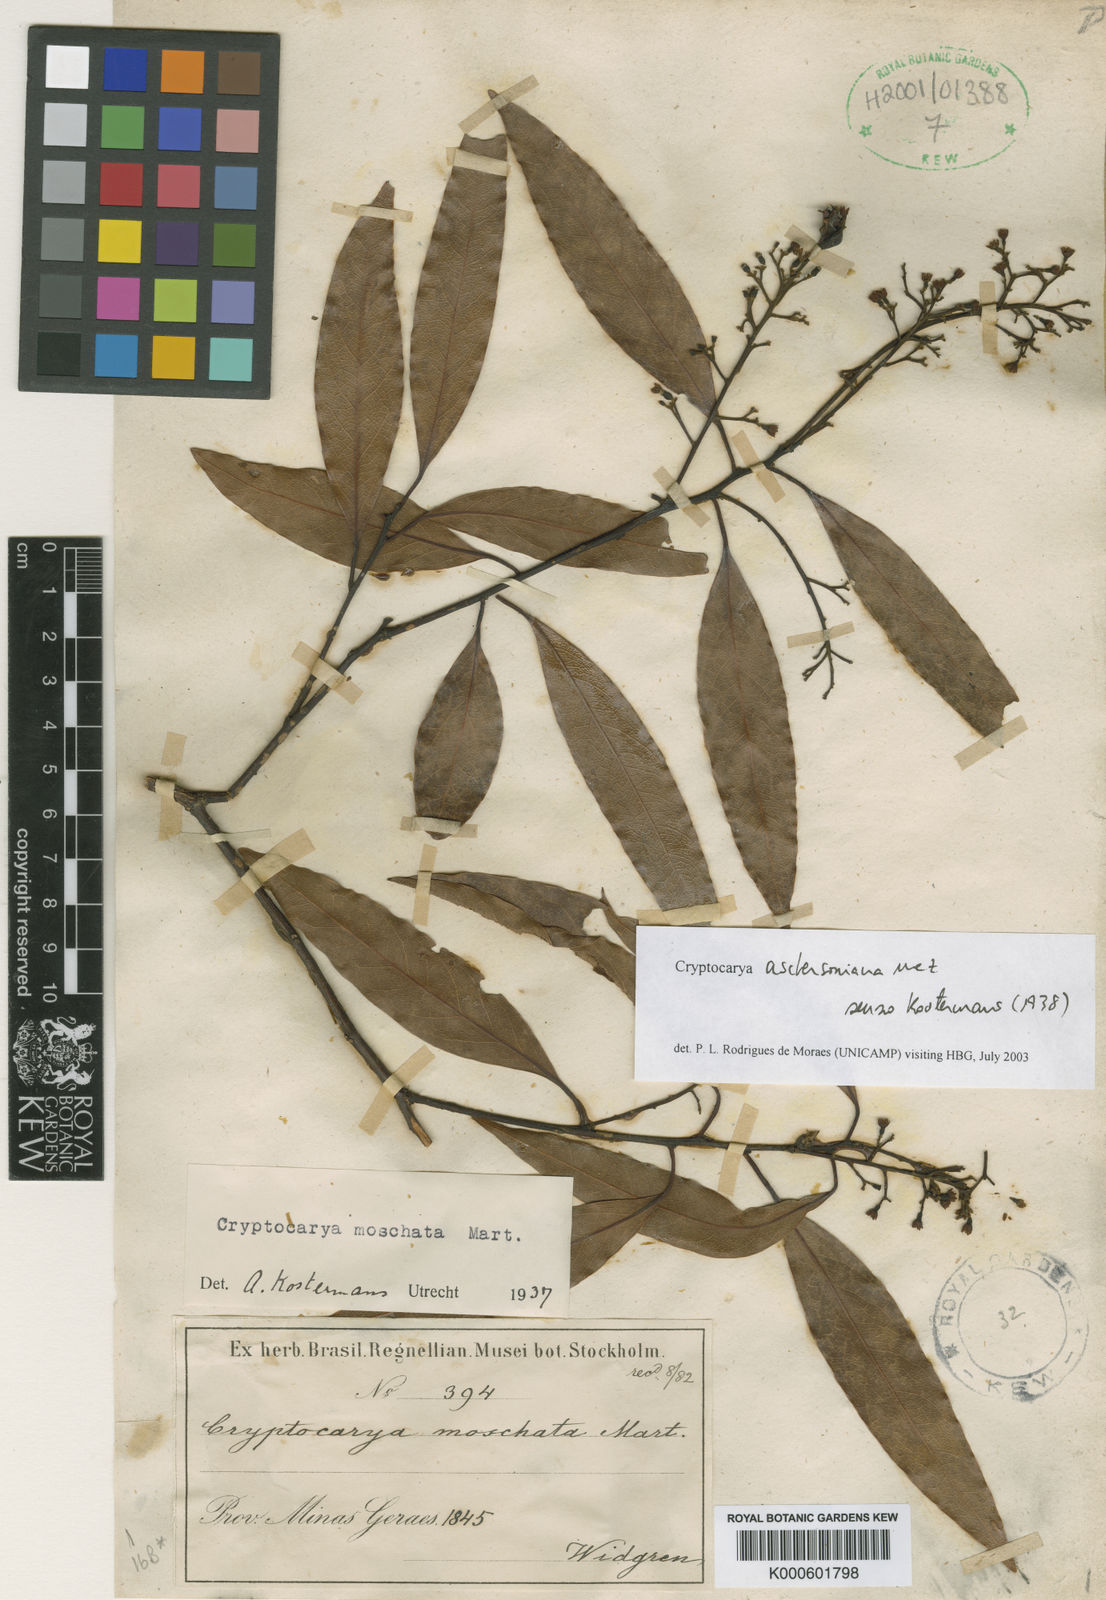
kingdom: Plantae
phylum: Tracheophyta
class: Magnoliopsida
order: Laurales
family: Lauraceae
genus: Cryptocarya
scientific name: Cryptocarya aschersoniana
